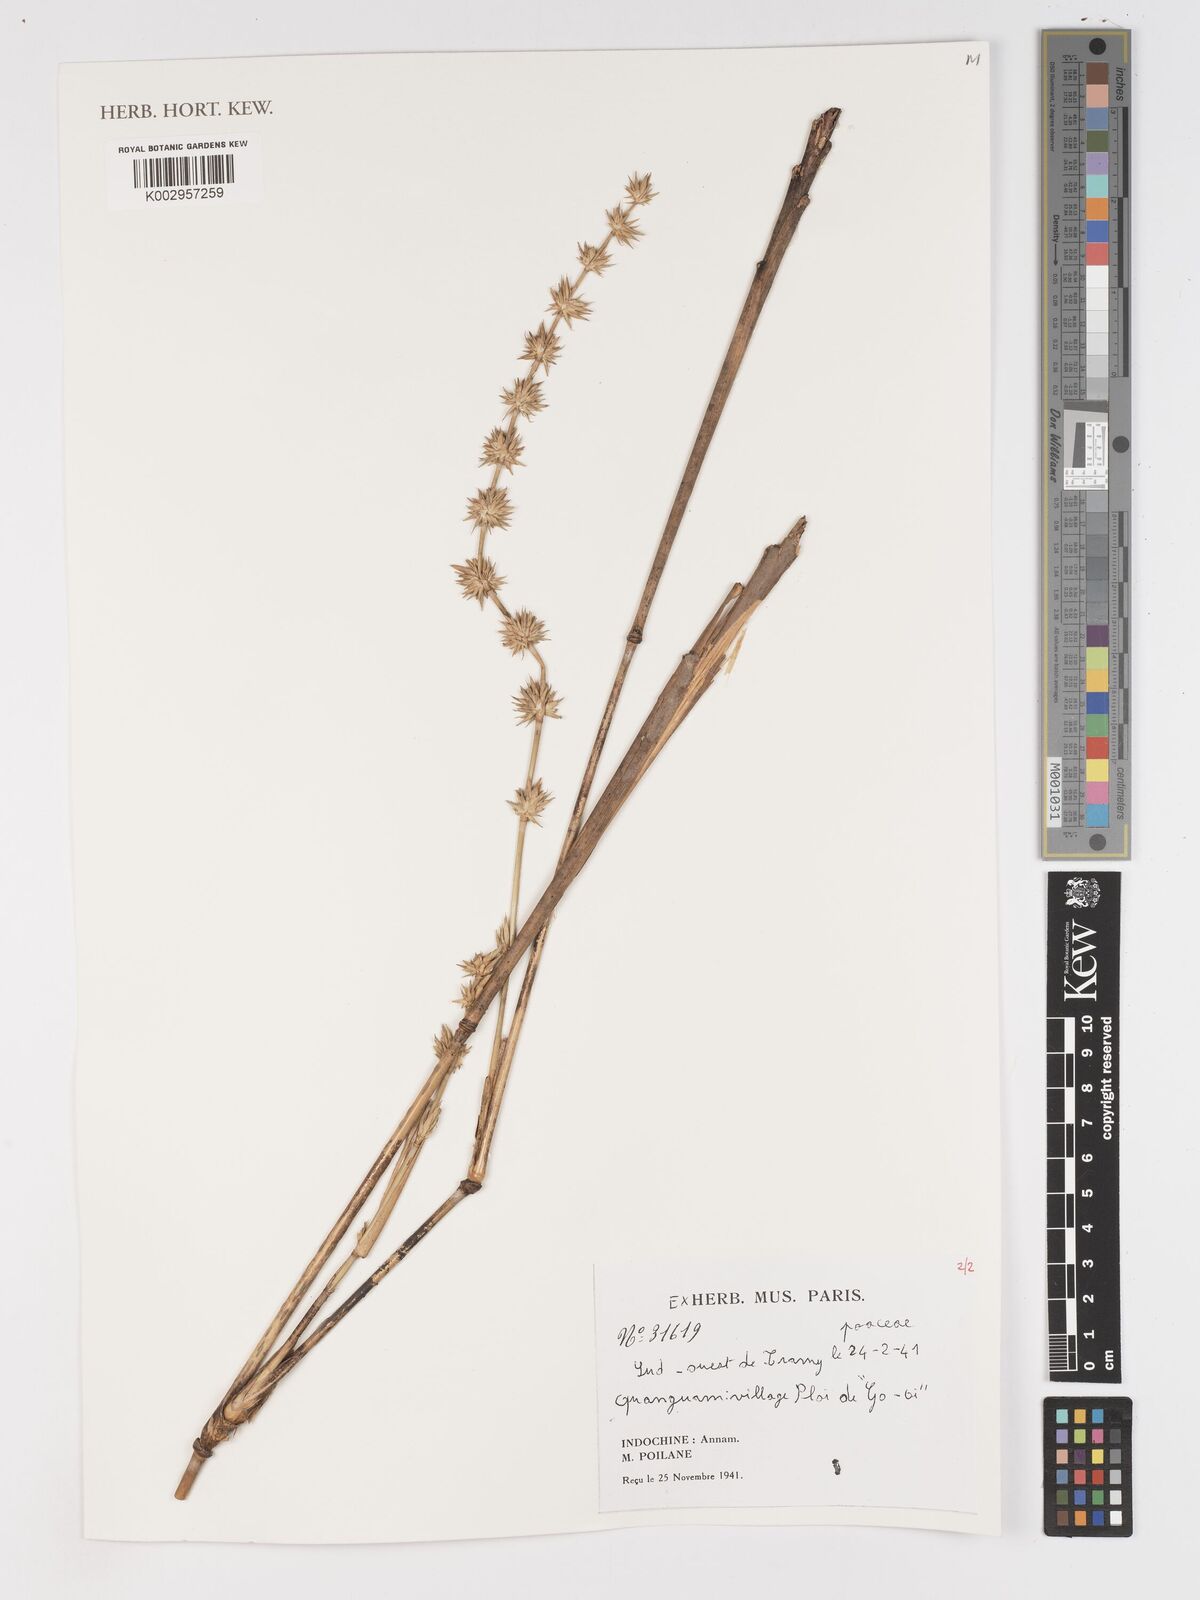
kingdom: Plantae
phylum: Tracheophyta
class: Liliopsida
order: Poales
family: Poaceae
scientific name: Poaceae
